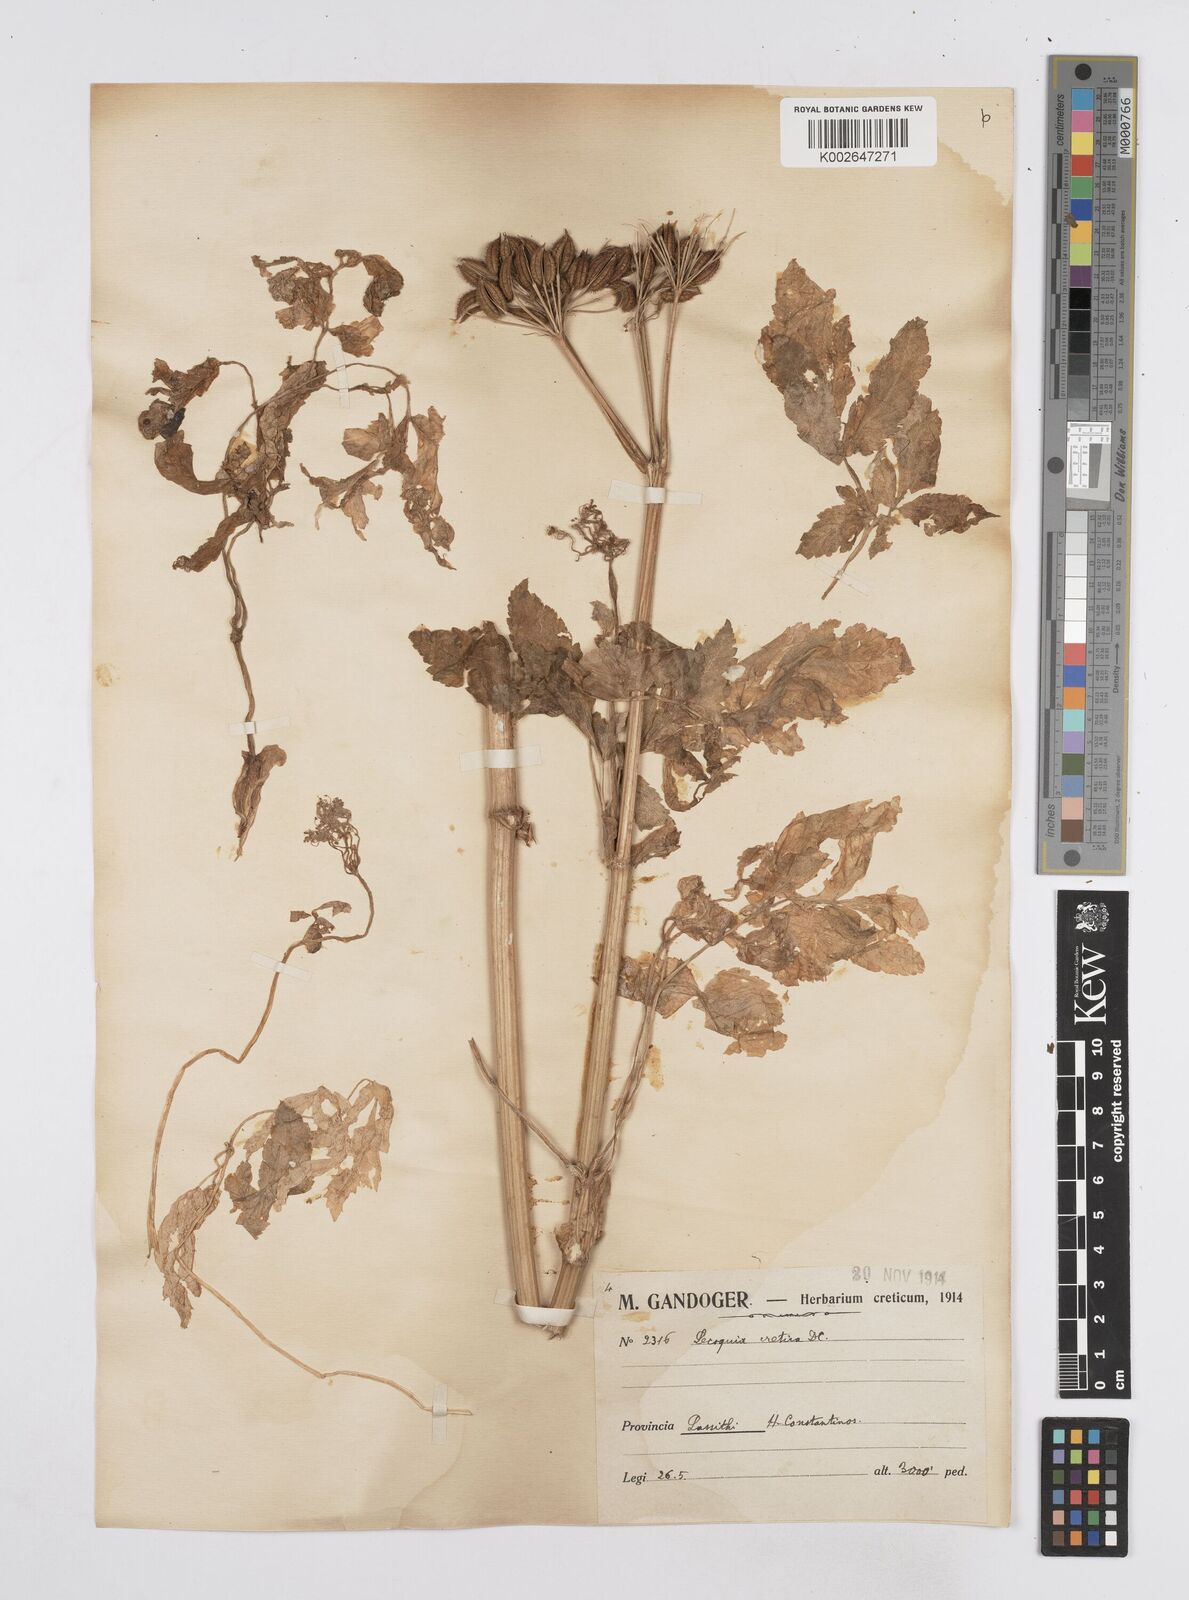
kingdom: Plantae
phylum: Tracheophyta
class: Magnoliopsida
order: Apiales
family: Apiaceae
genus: Lecokia
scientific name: Lecokia
